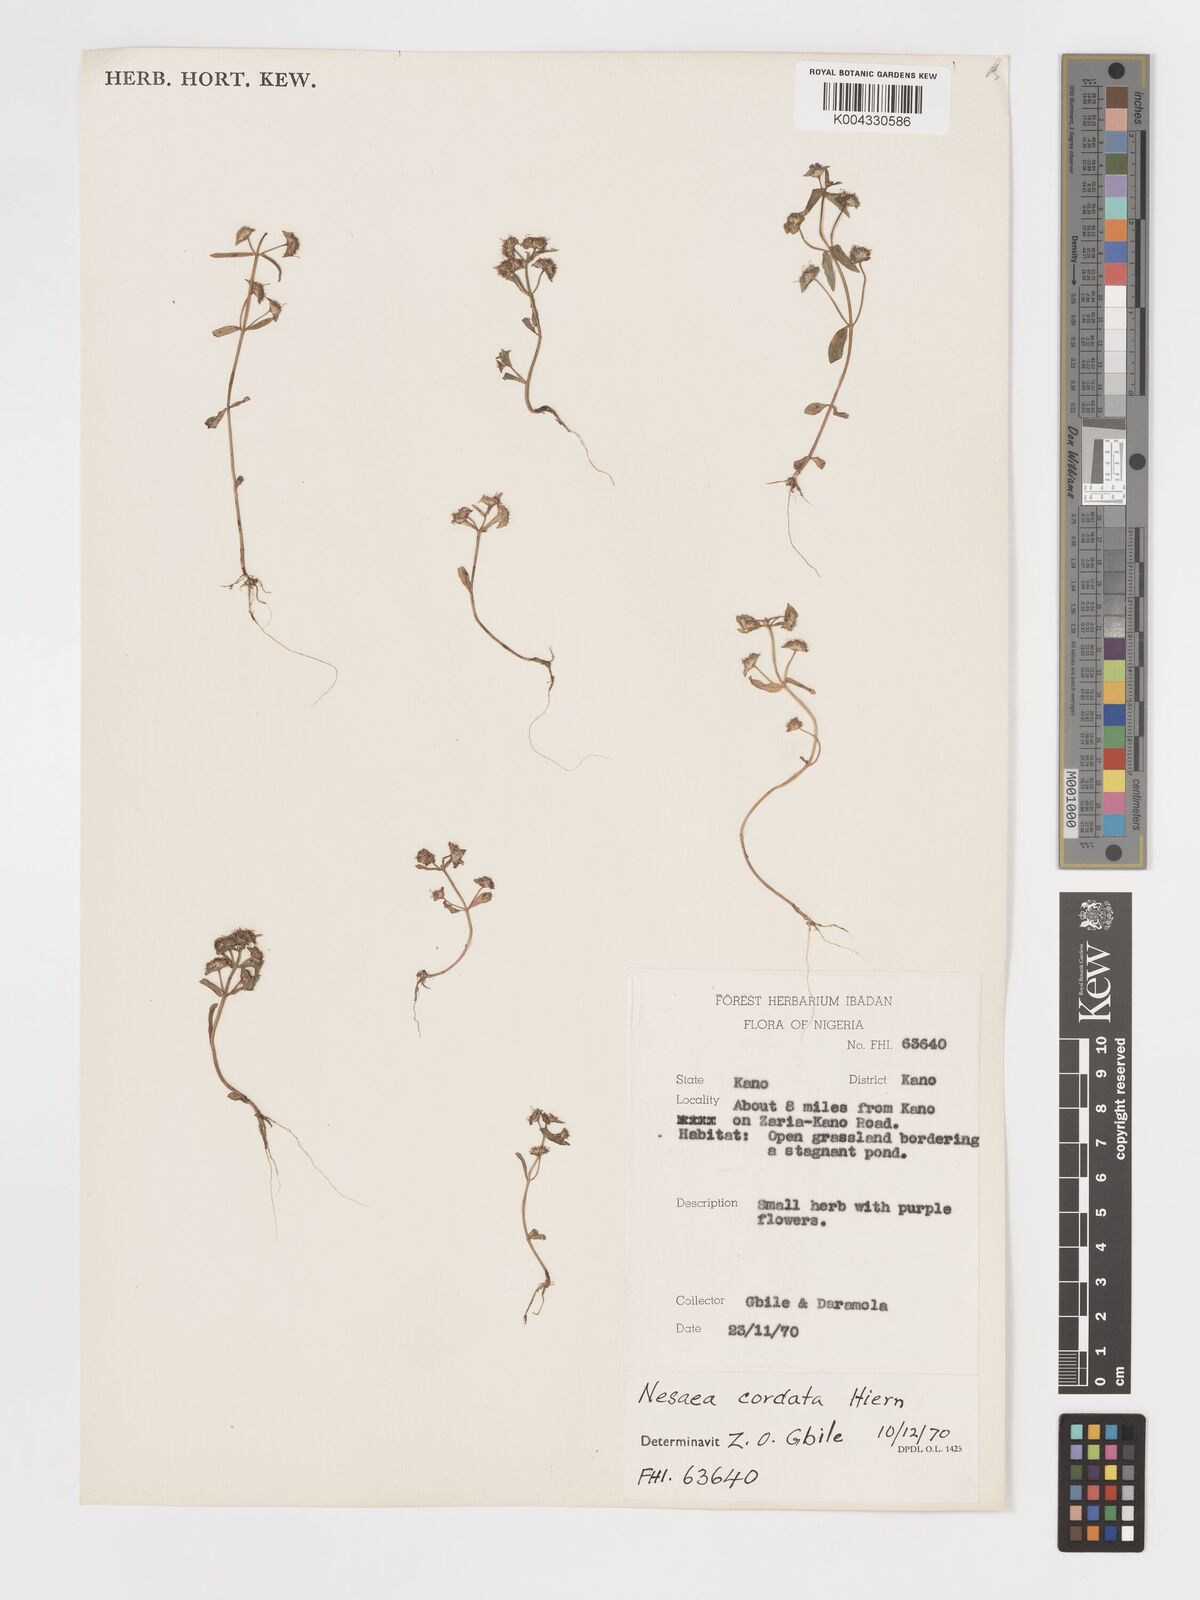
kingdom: Plantae
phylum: Tracheophyta
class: Magnoliopsida
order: Myrtales
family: Lythraceae
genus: Nesaea
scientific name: Nesaea
